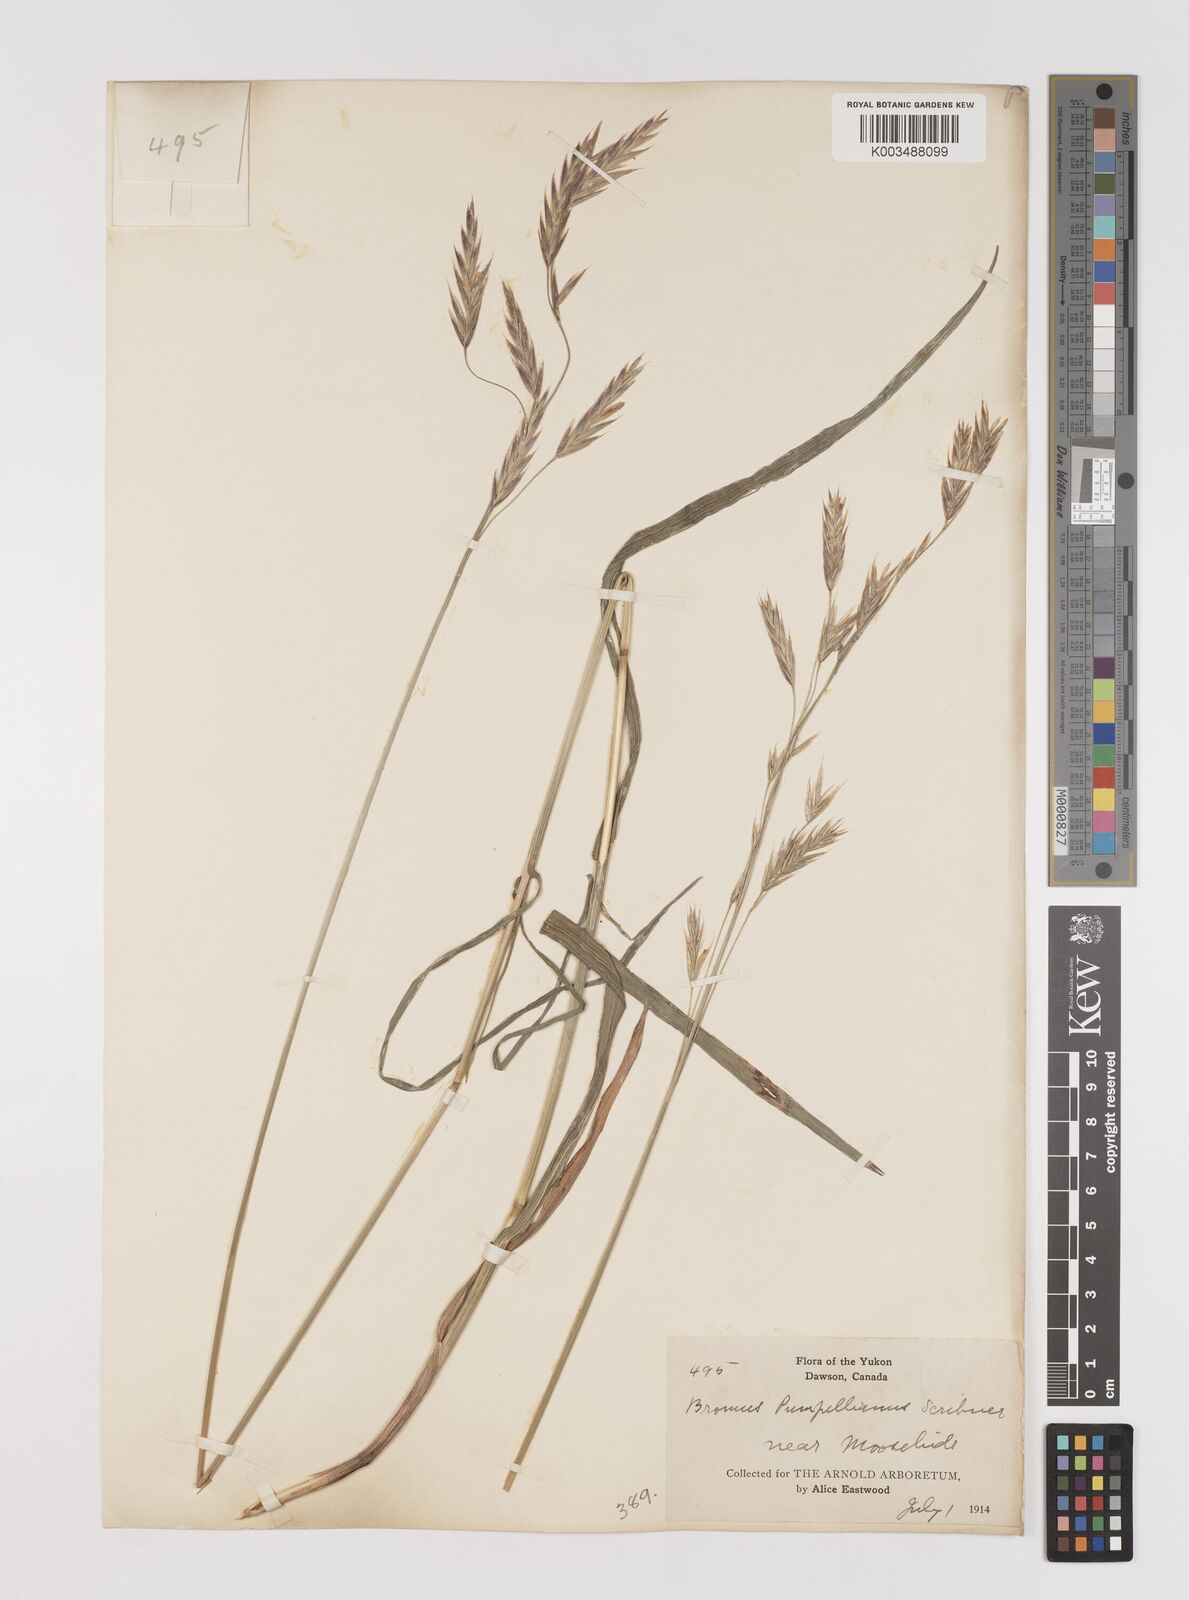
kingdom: Plantae
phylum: Tracheophyta
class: Liliopsida
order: Poales
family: Poaceae
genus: Bromus
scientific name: Bromus pumpellianus
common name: Pumpelly's brome
